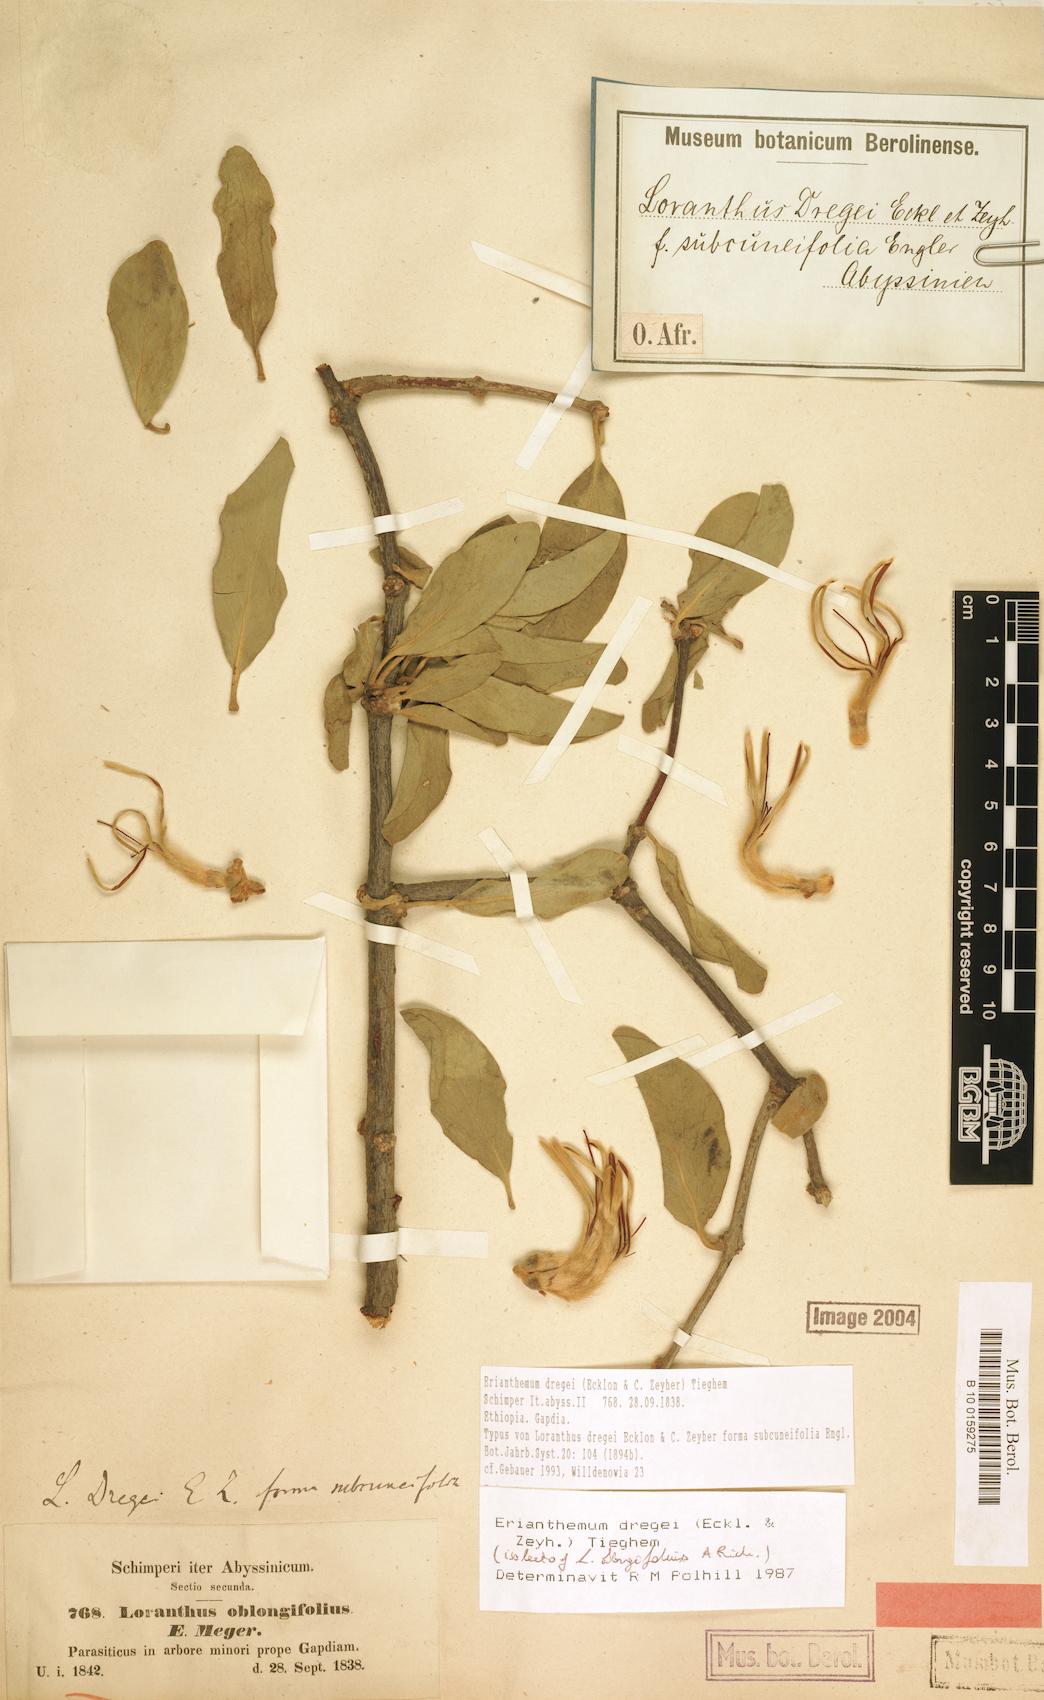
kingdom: Plantae
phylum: Tracheophyta
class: Magnoliopsida
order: Santalales
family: Loranthaceae
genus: Erianthemum
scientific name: Erianthemum dregei
